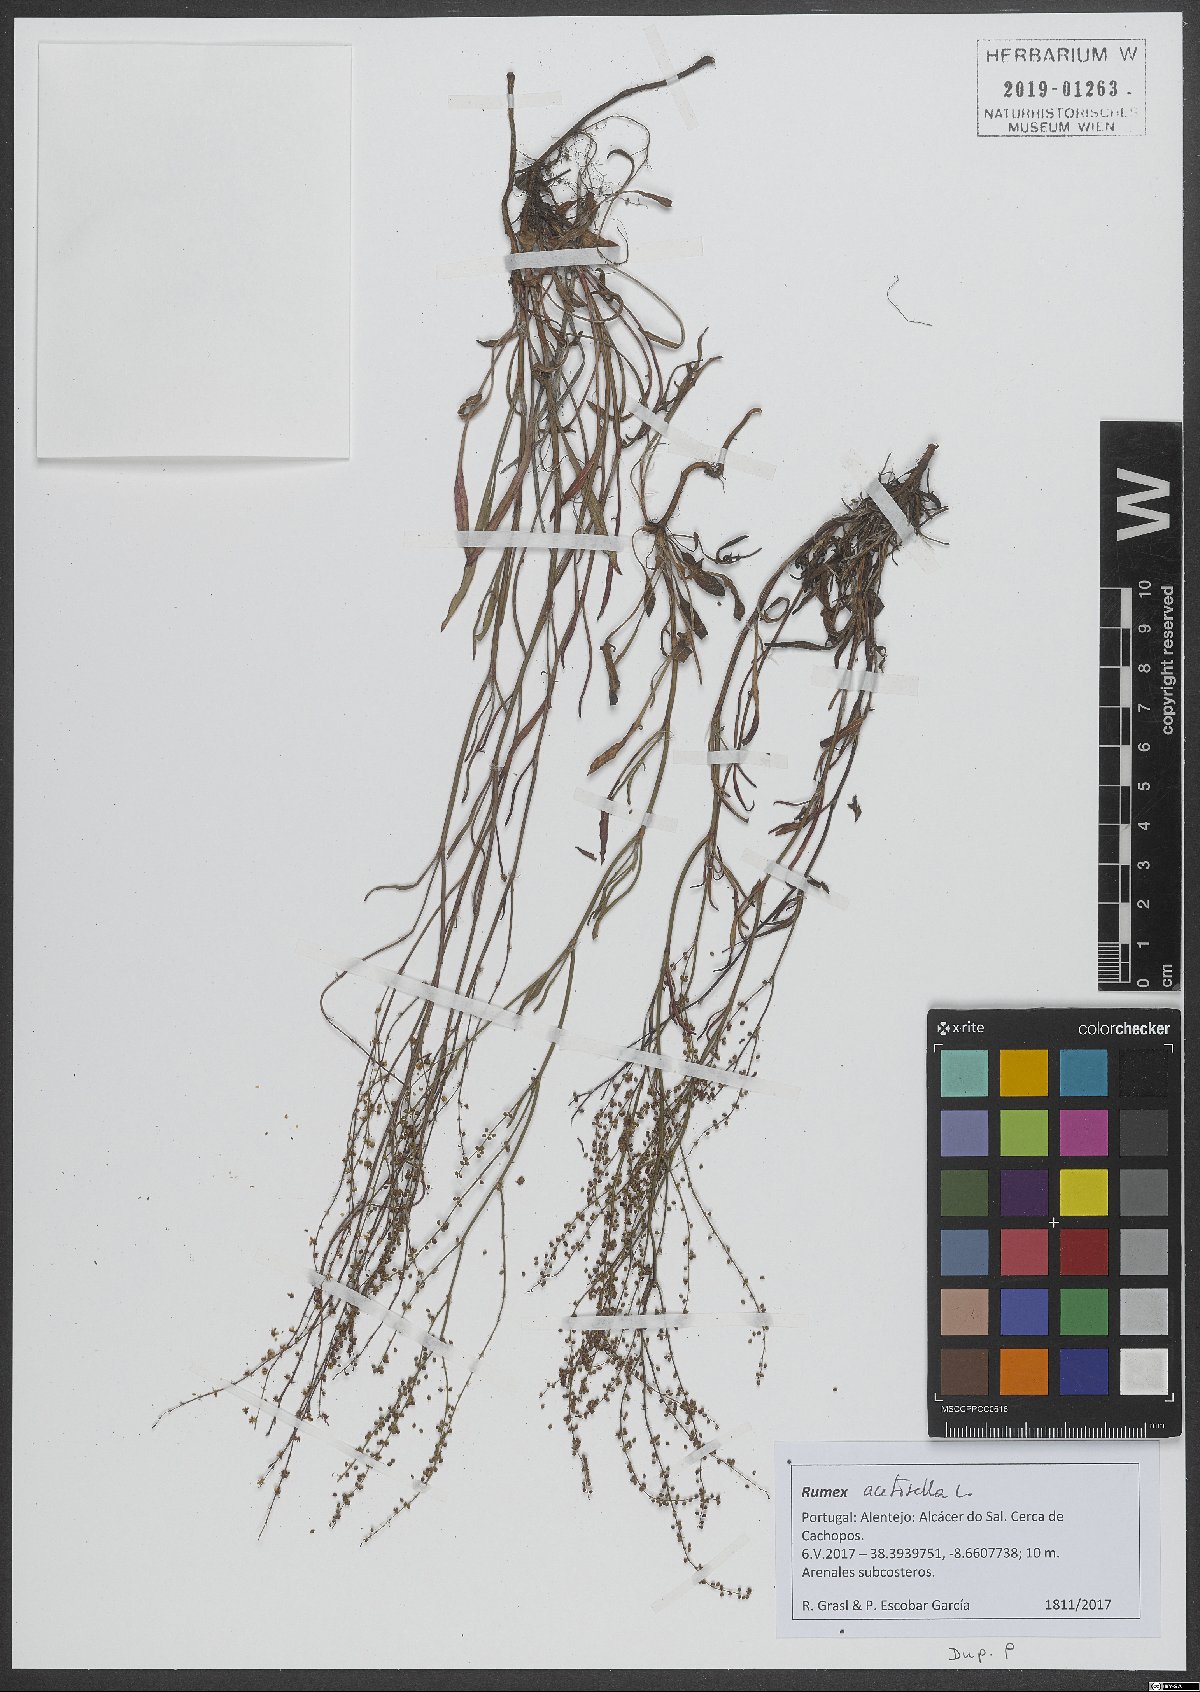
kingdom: Plantae
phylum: Tracheophyta
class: Magnoliopsida
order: Caryophyllales
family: Polygonaceae
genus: Rumex
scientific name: Rumex acetosella
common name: Common sheep sorrel
